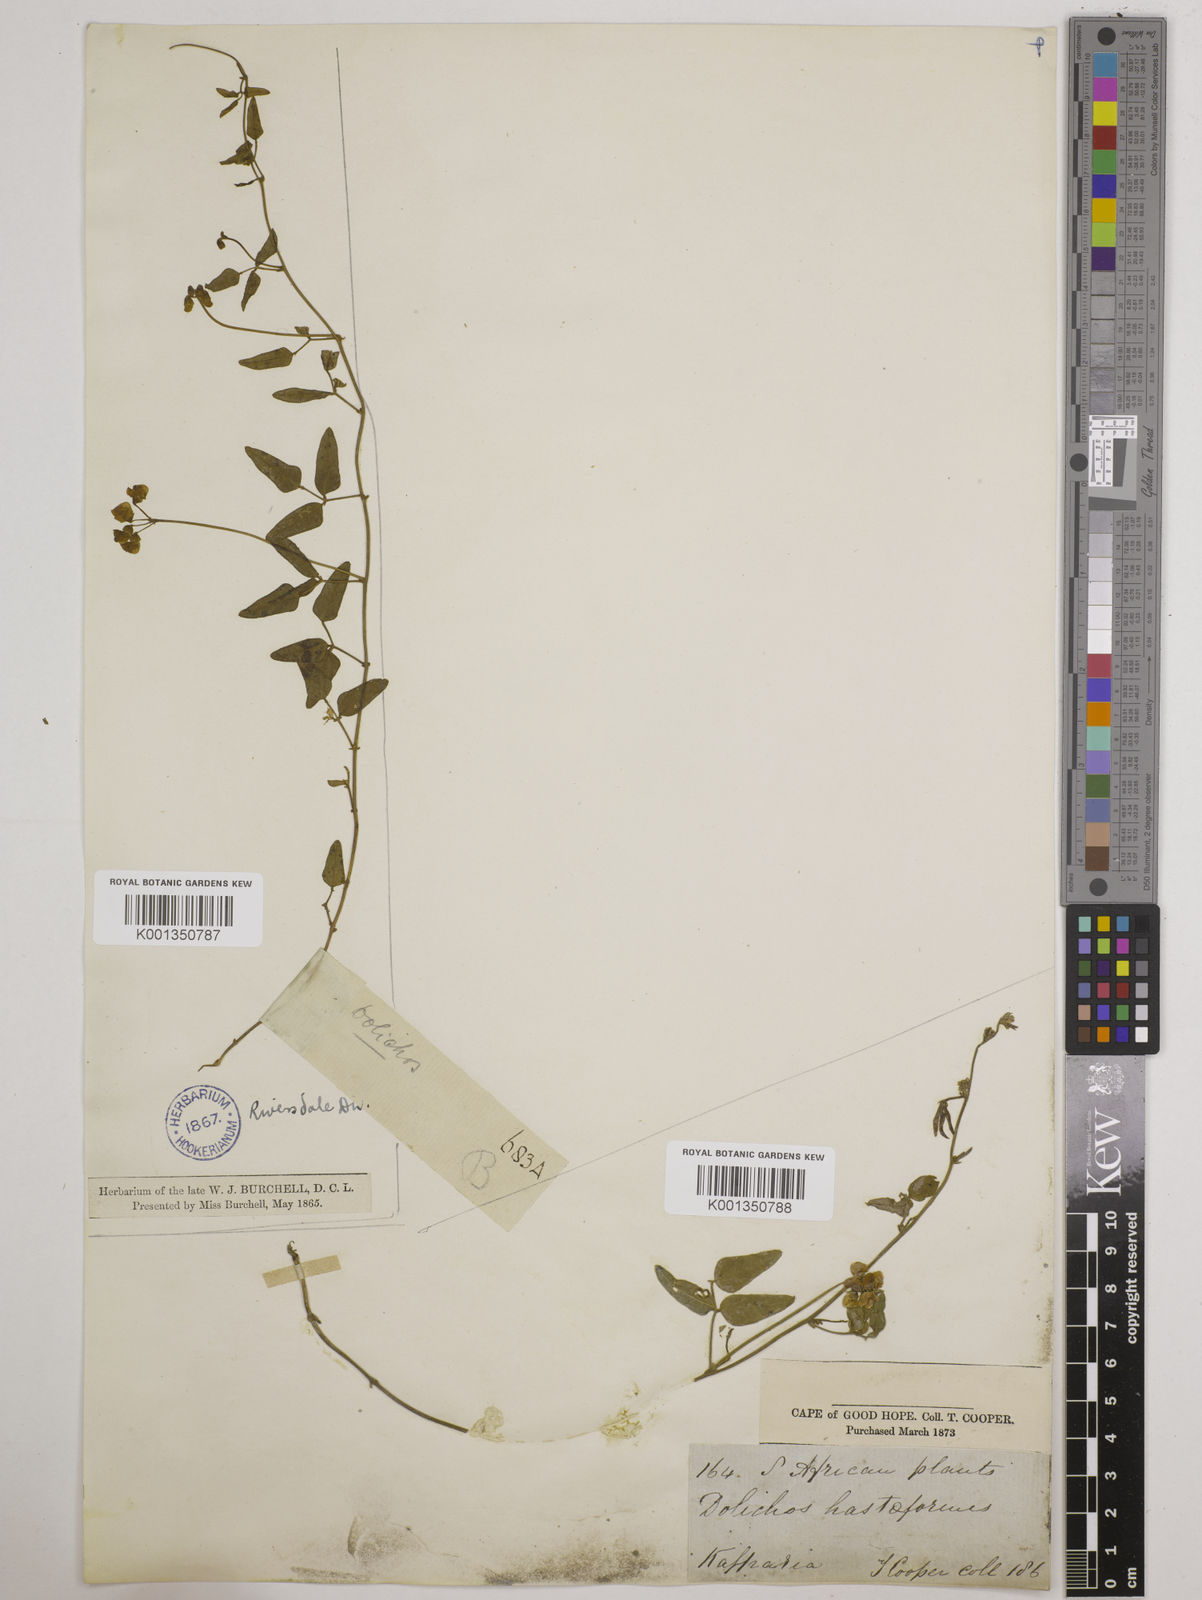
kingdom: Plantae
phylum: Tracheophyta
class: Magnoliopsida
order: Fabales
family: Fabaceae
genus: Dolichos
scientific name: Dolichos
